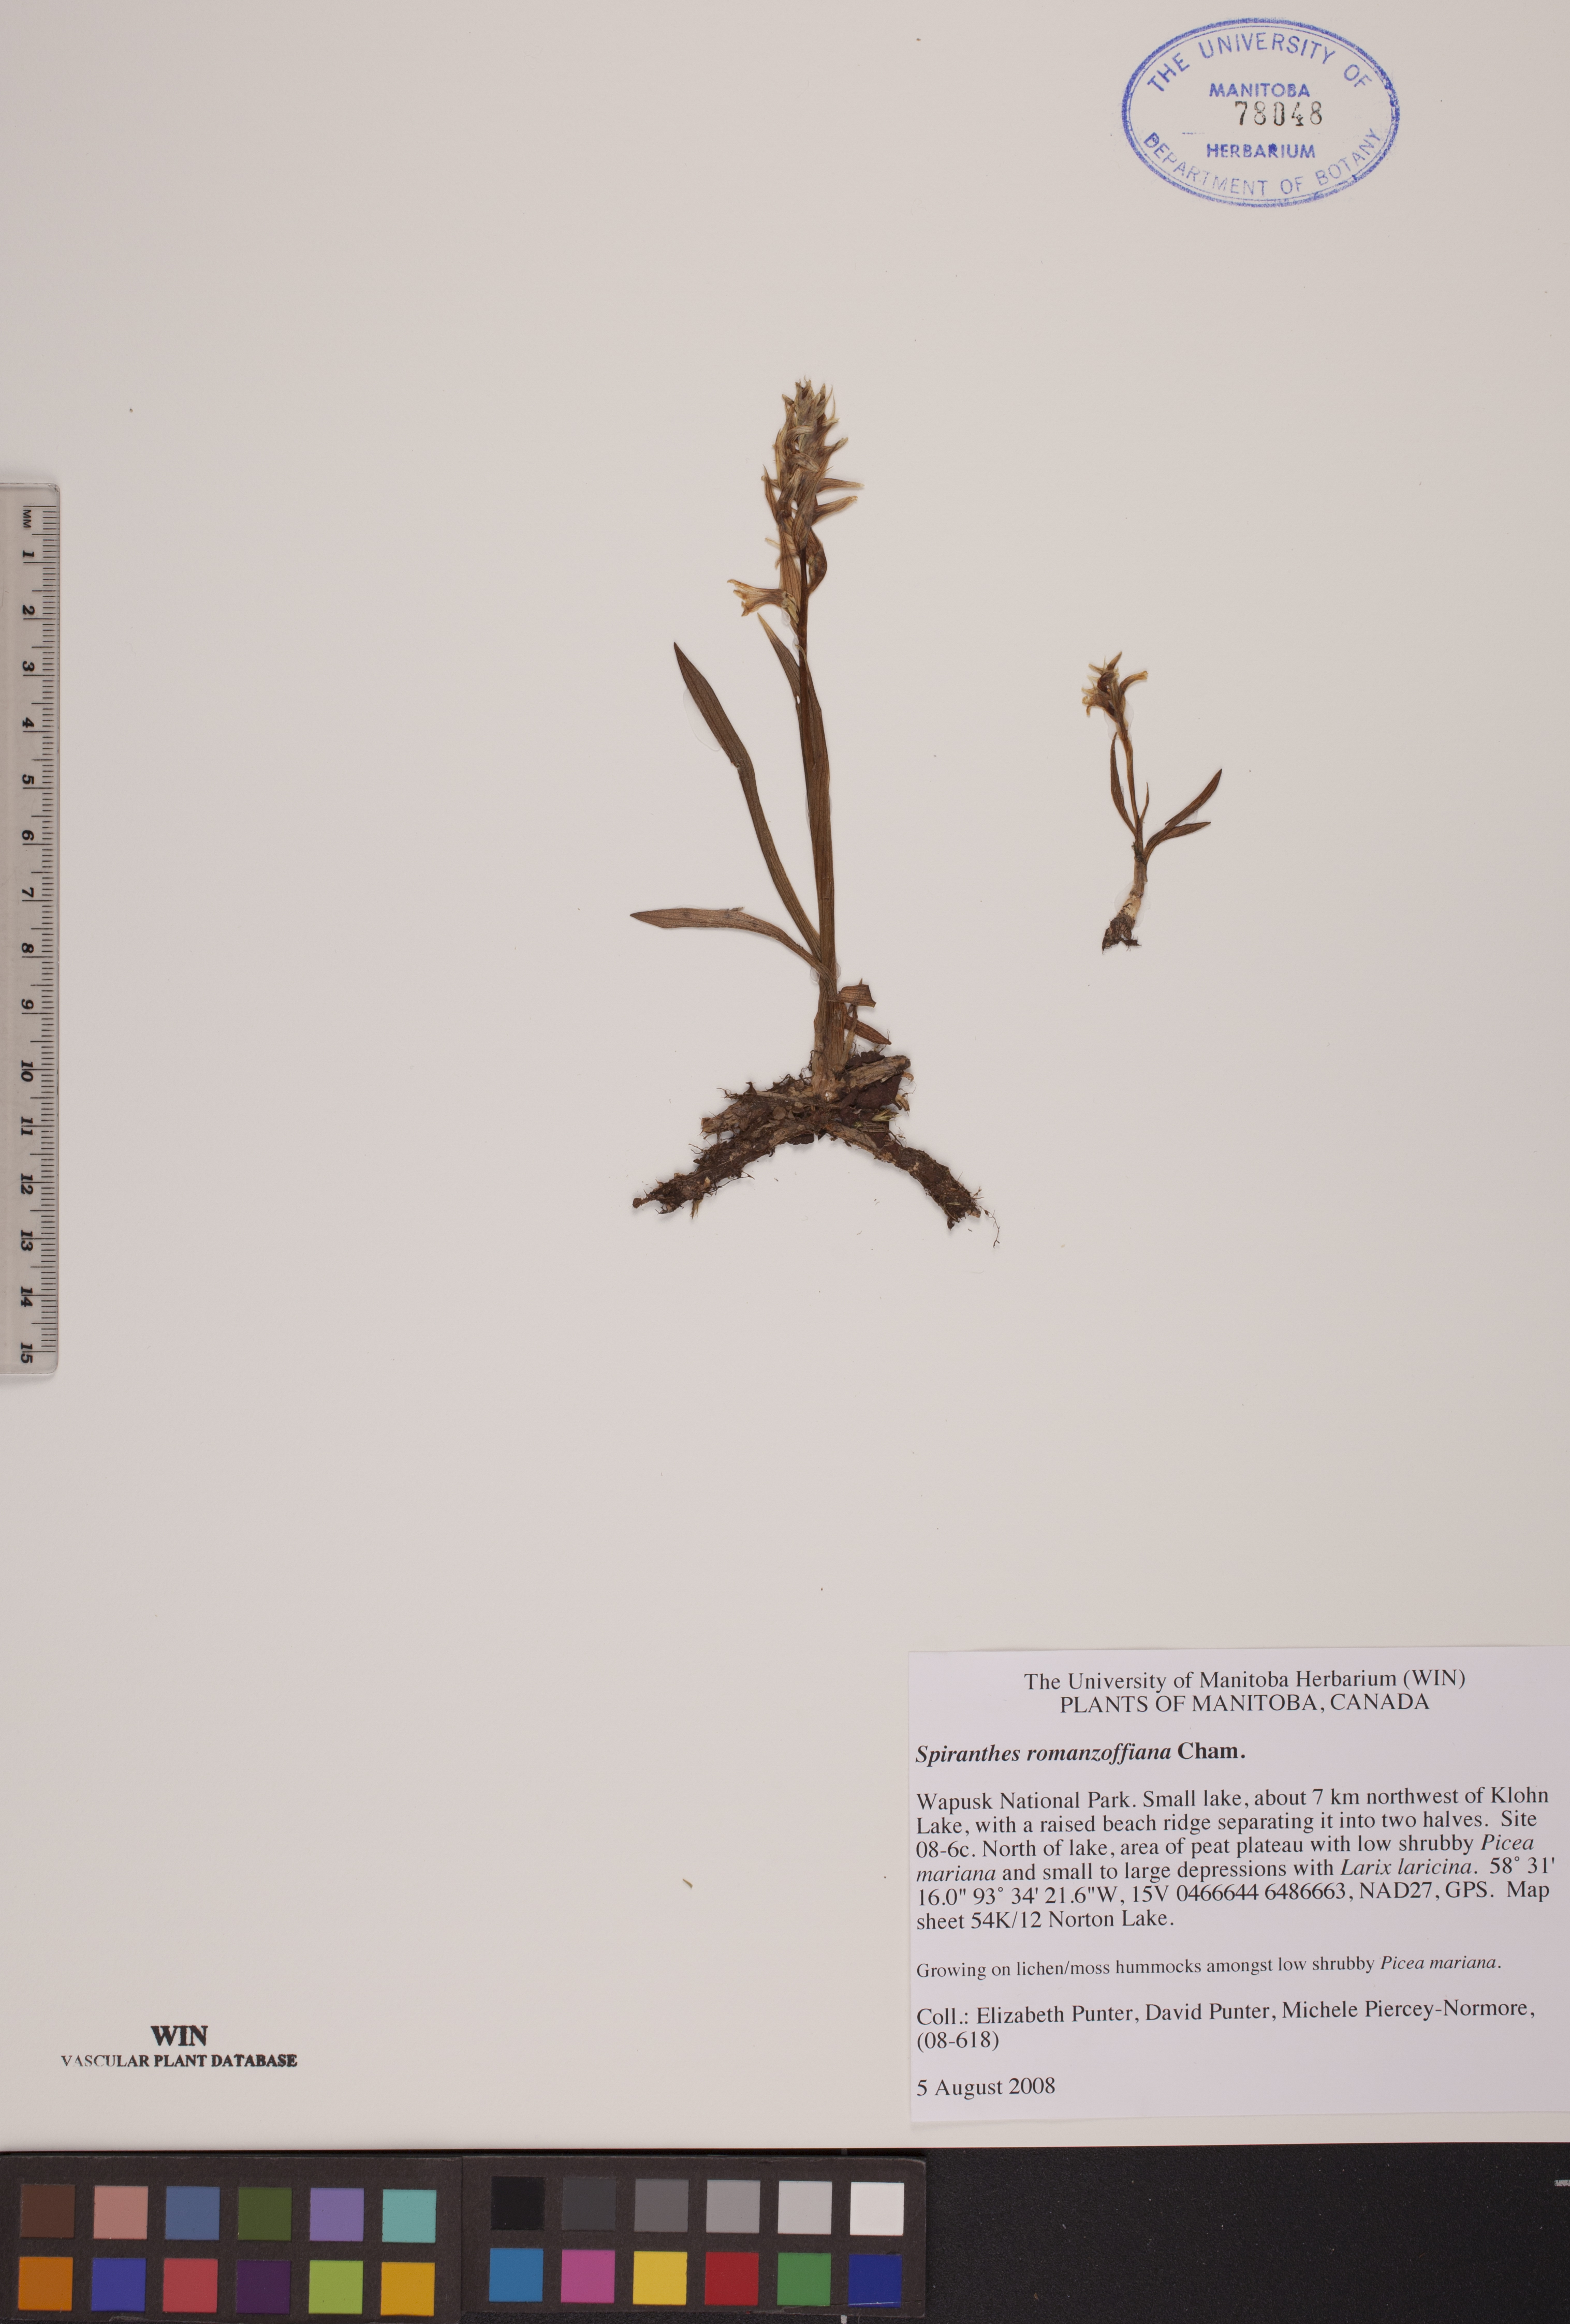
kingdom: Plantae
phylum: Tracheophyta
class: Liliopsida
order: Asparagales
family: Orchidaceae
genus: Spiranthes
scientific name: Spiranthes romanzoffiana
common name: Irish lady's-tresses
